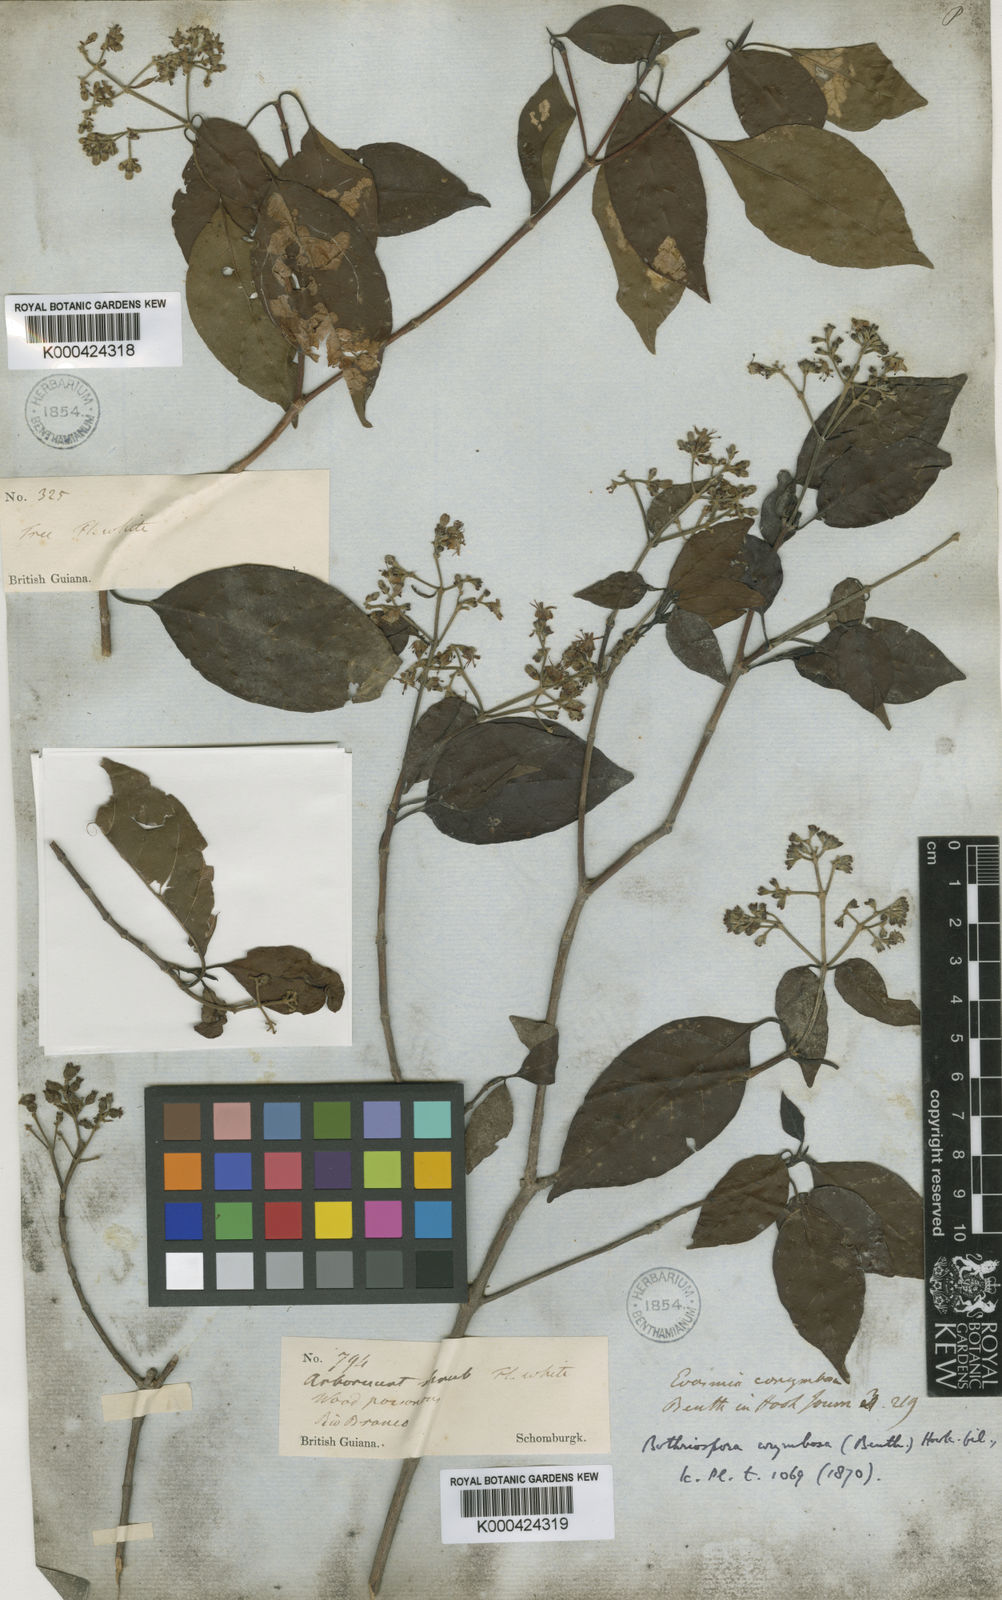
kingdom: Plantae
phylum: Tracheophyta
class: Magnoliopsida
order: Gentianales
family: Rubiaceae
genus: Bothriospora
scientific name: Bothriospora corymbosa
